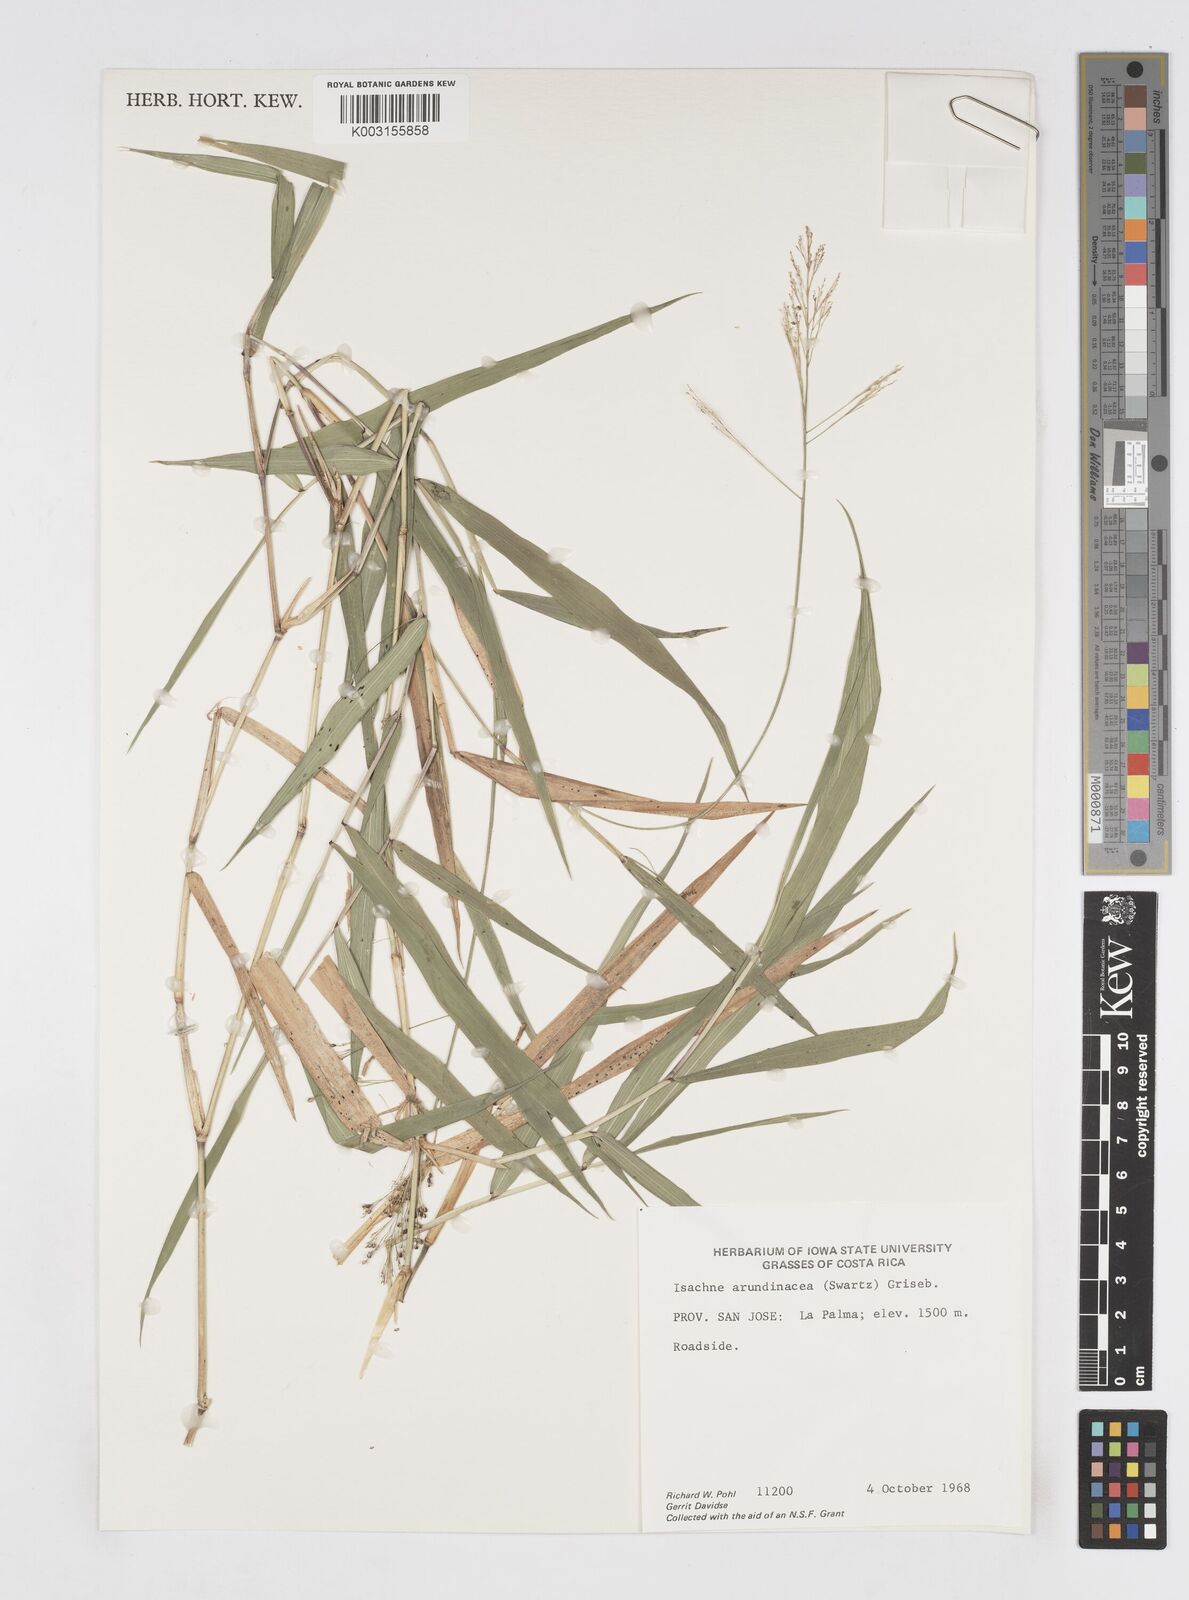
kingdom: Plantae
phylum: Tracheophyta
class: Liliopsida
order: Poales
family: Poaceae
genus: Isachne
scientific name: Isachne arundinacea
